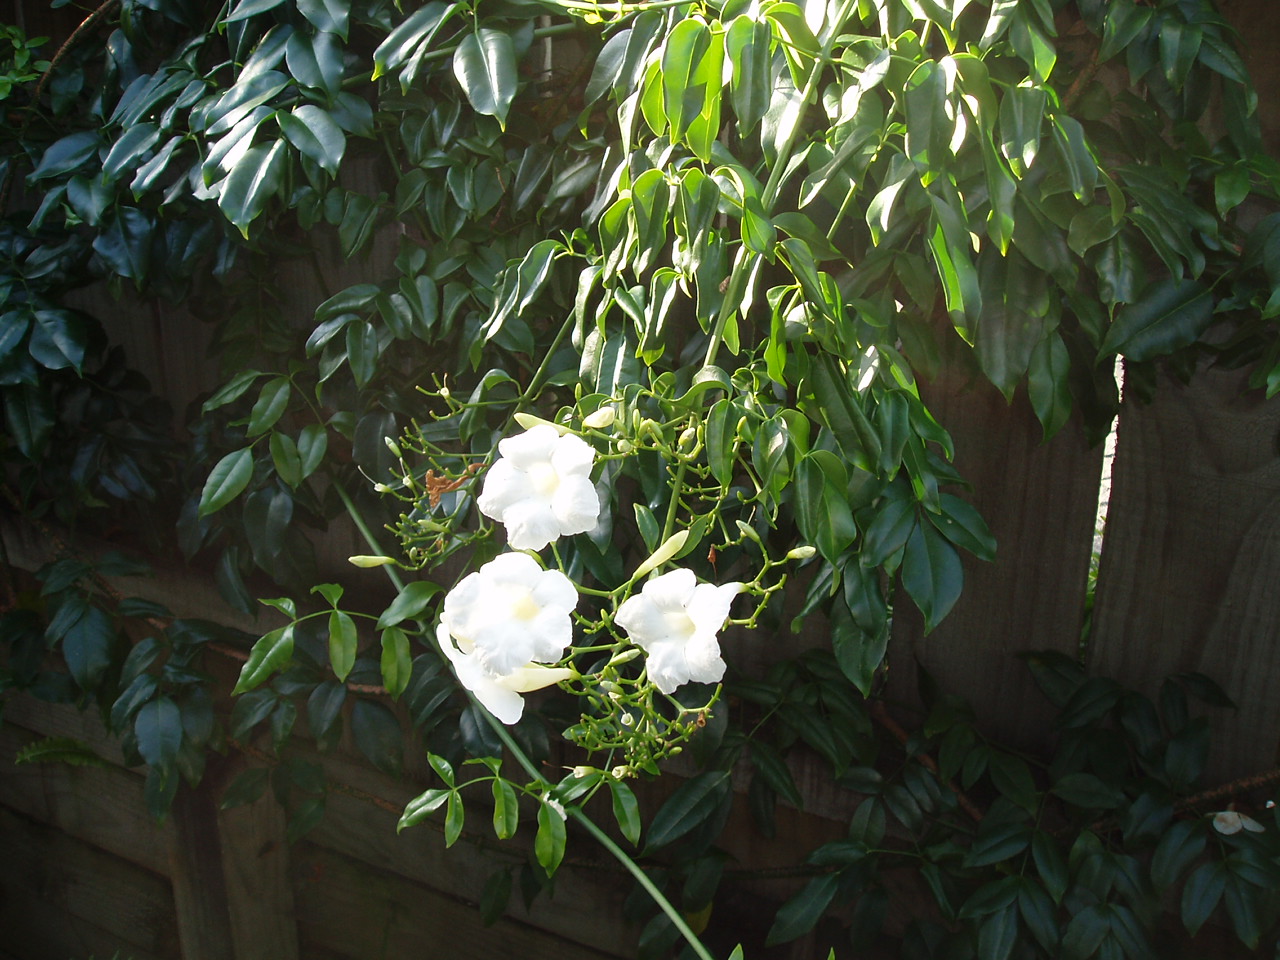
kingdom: Plantae
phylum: Tracheophyta
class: Magnoliopsida
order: Lamiales
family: Bignoniaceae
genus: Pandorea
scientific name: Pandorea jasminoides
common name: Bowerplant
